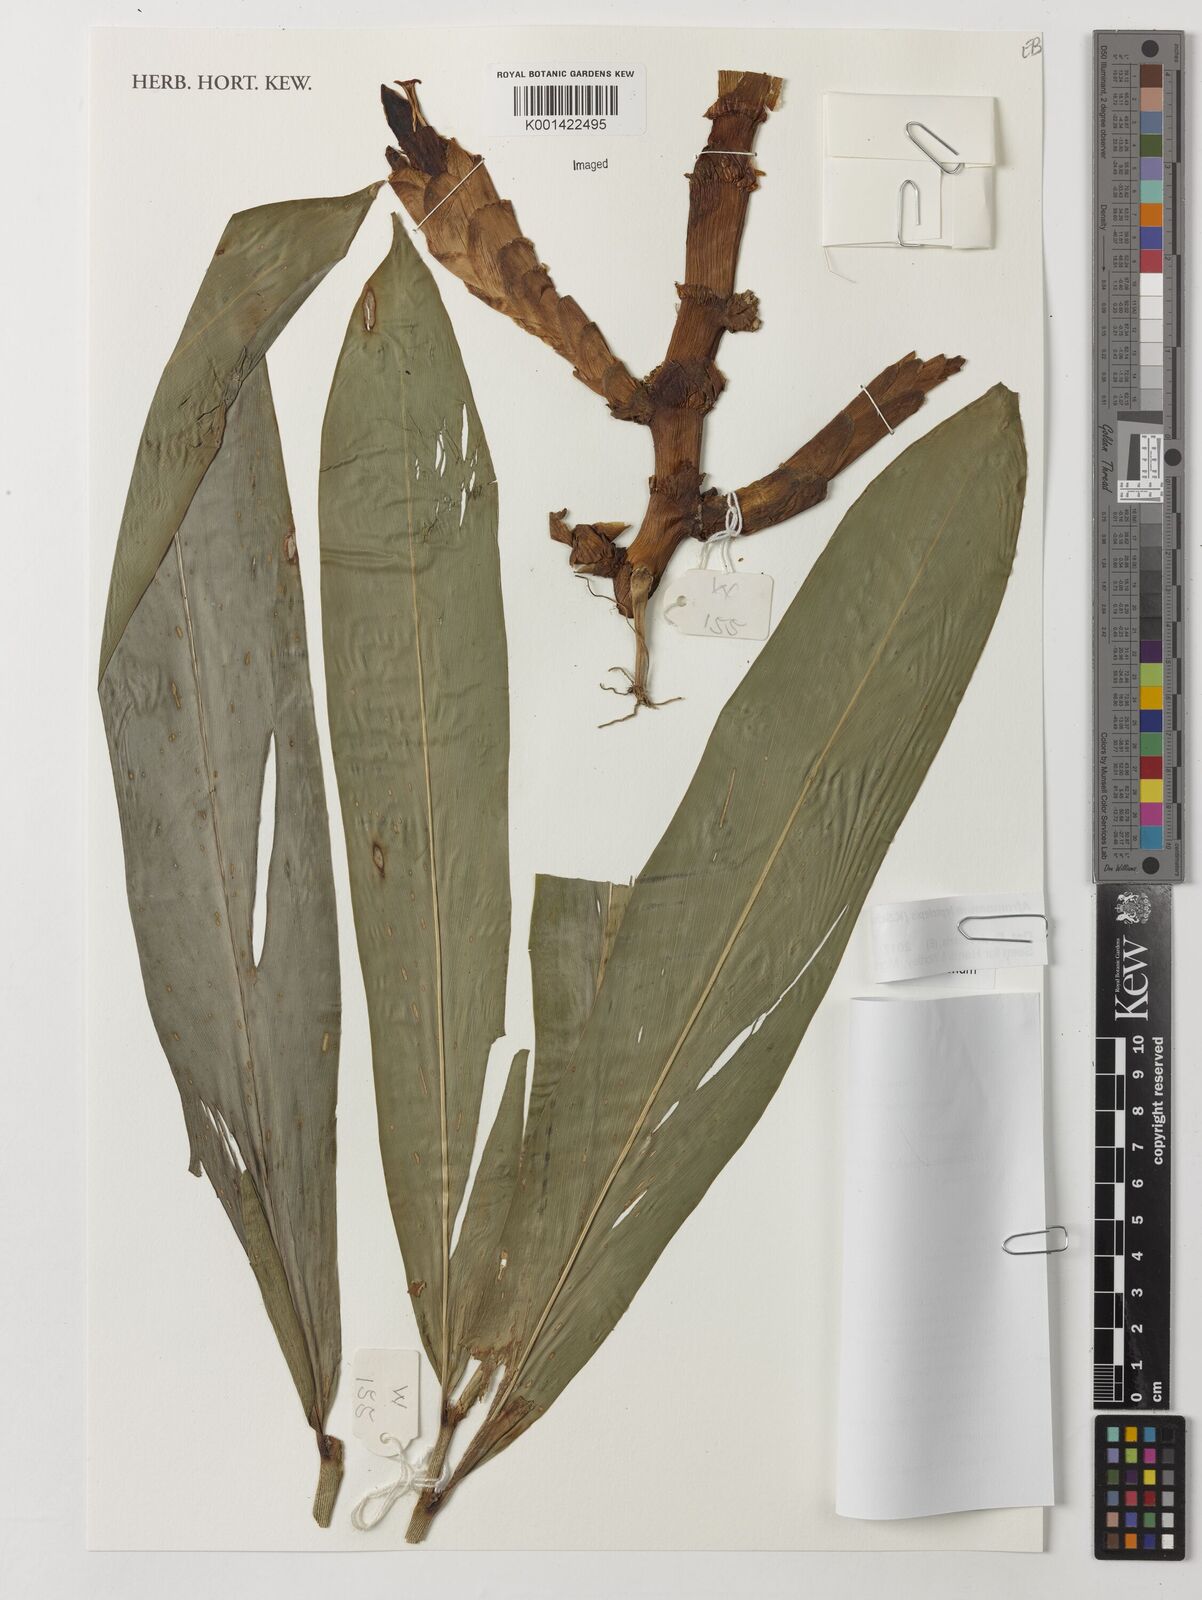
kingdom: Plantae
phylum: Tracheophyta
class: Liliopsida
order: Zingiberales
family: Zingiberaceae
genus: Aframomum
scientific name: Aframomum leptolepis
